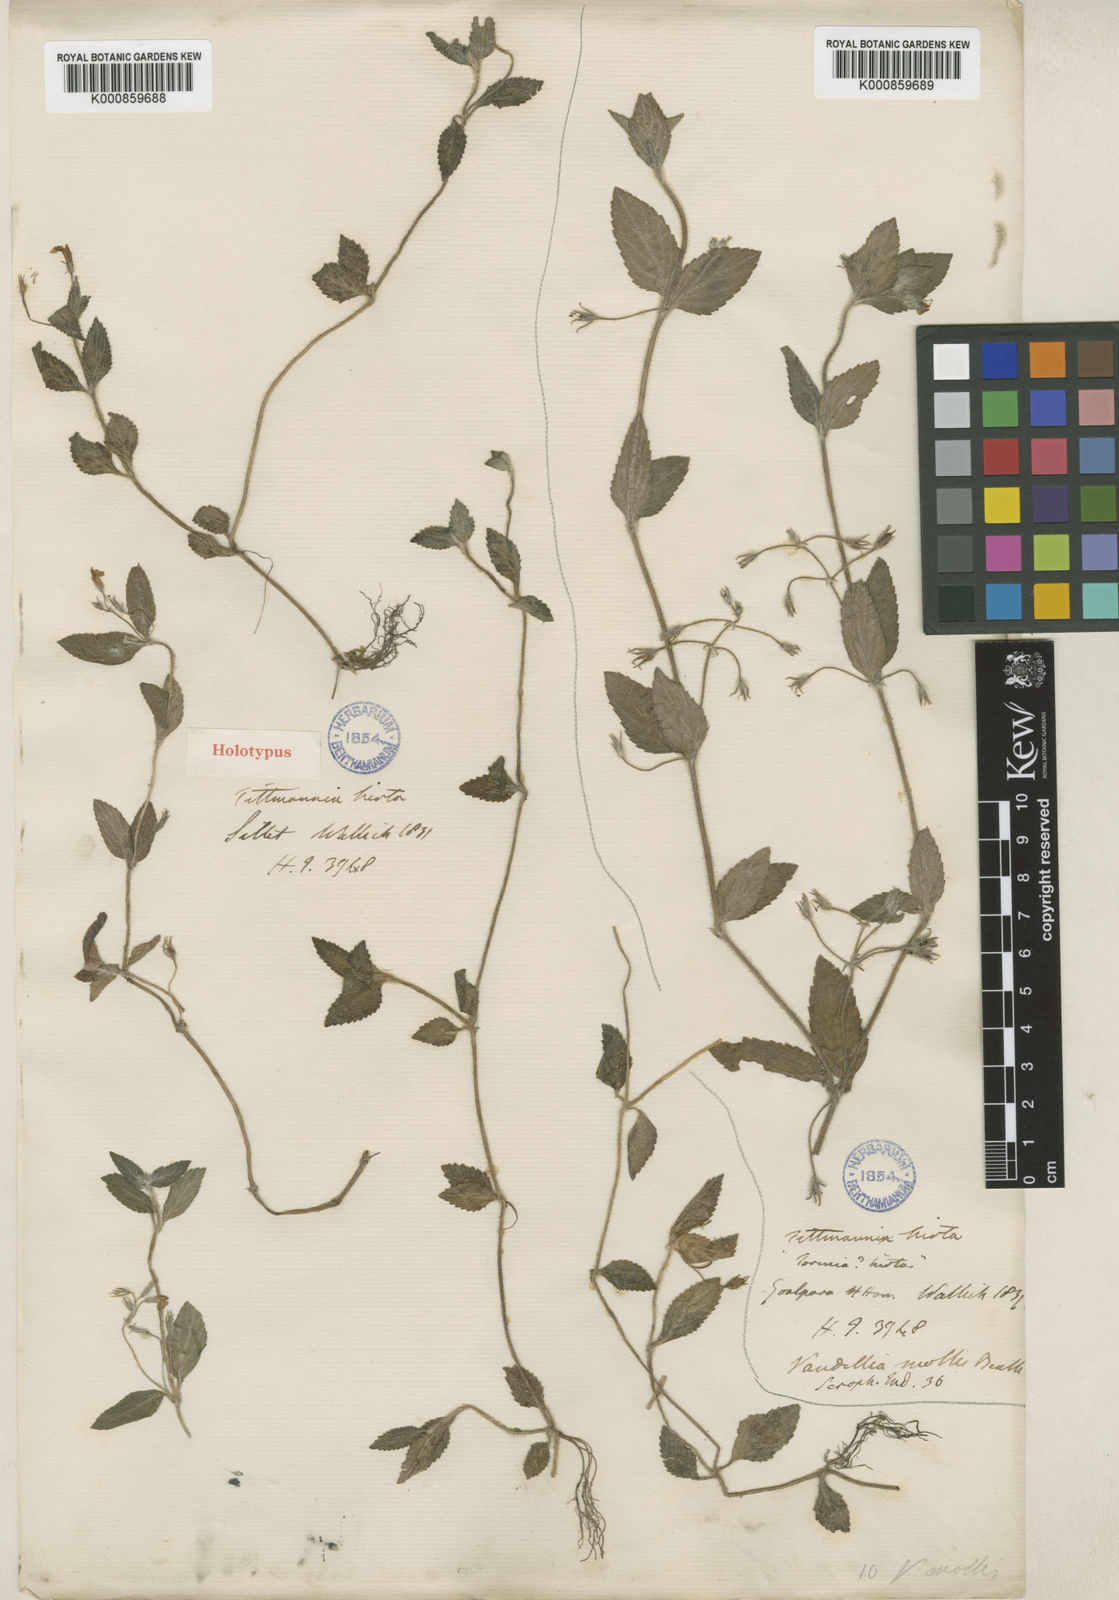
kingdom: Plantae
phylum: Tracheophyta
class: Magnoliopsida
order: Lamiales
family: Linderniaceae
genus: Lindernia
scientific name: Lindernia
